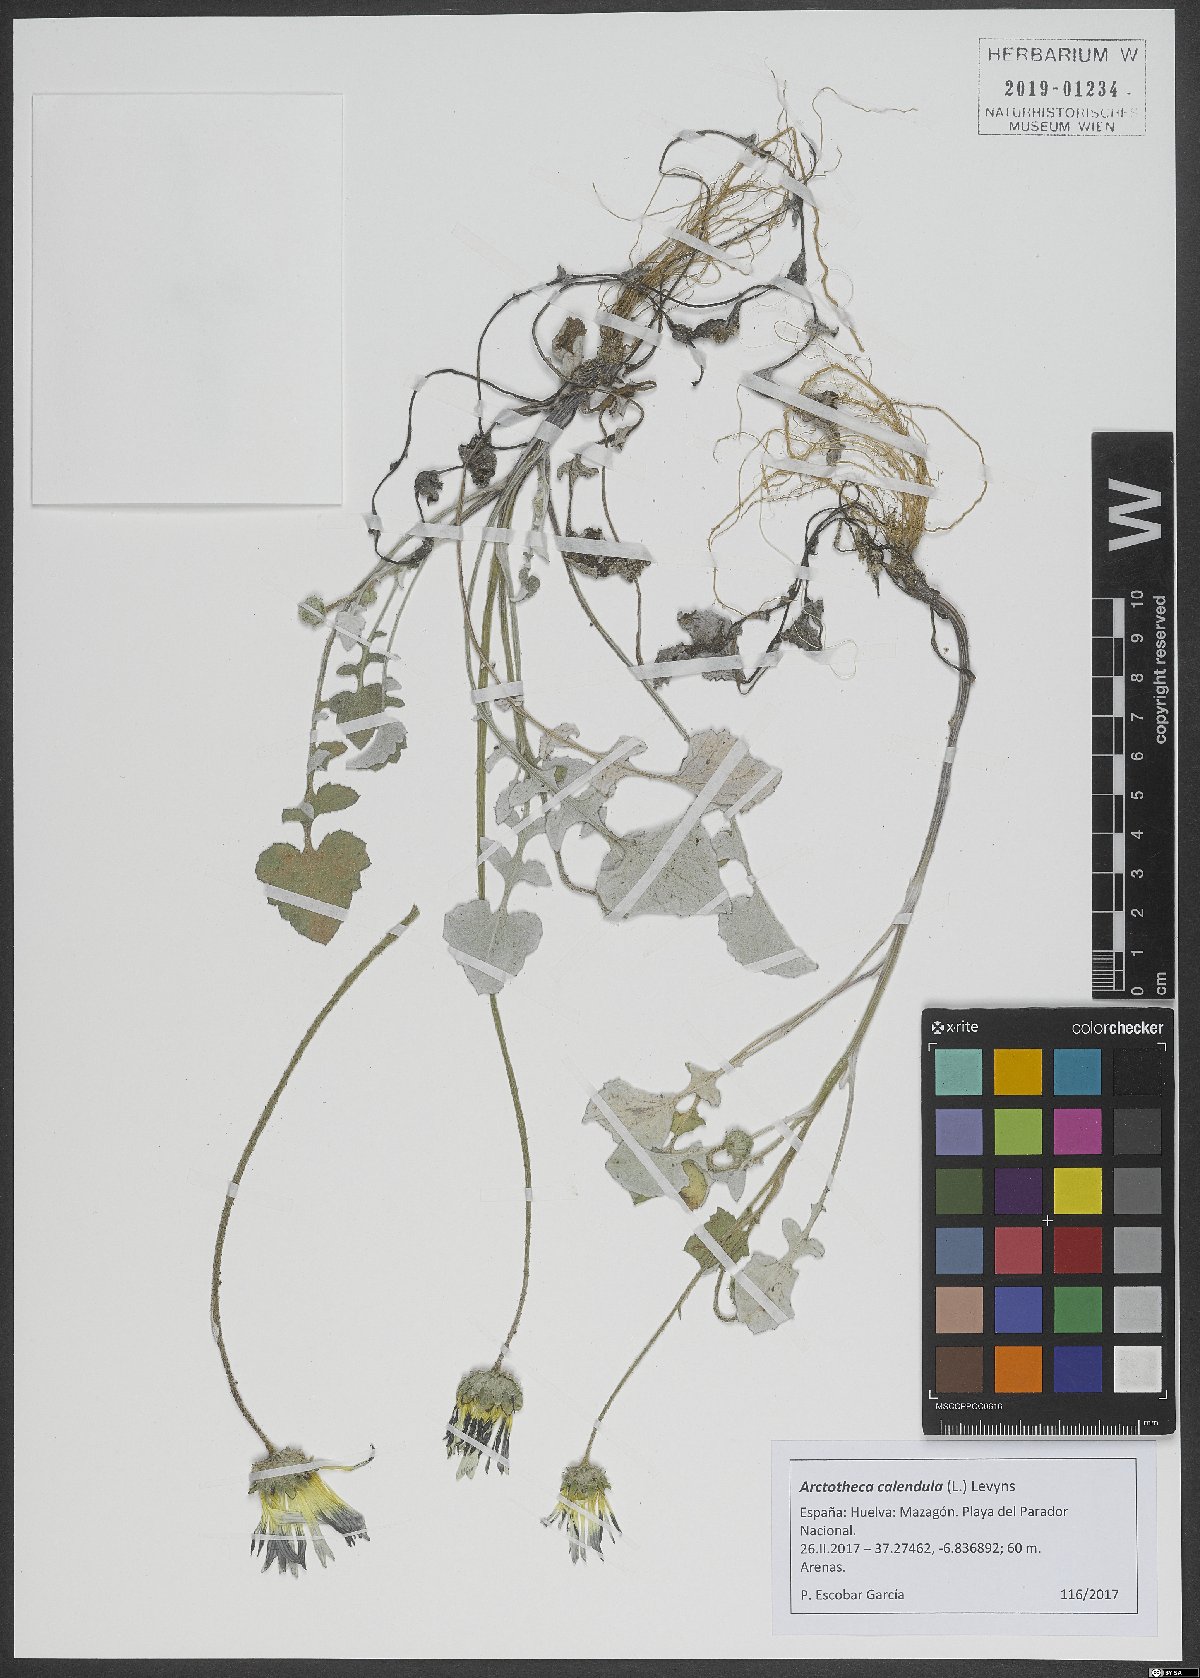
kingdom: Plantae
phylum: Tracheophyta
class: Magnoliopsida
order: Asterales
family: Asteraceae
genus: Arctotheca
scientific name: Arctotheca calendula
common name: Capeweed
